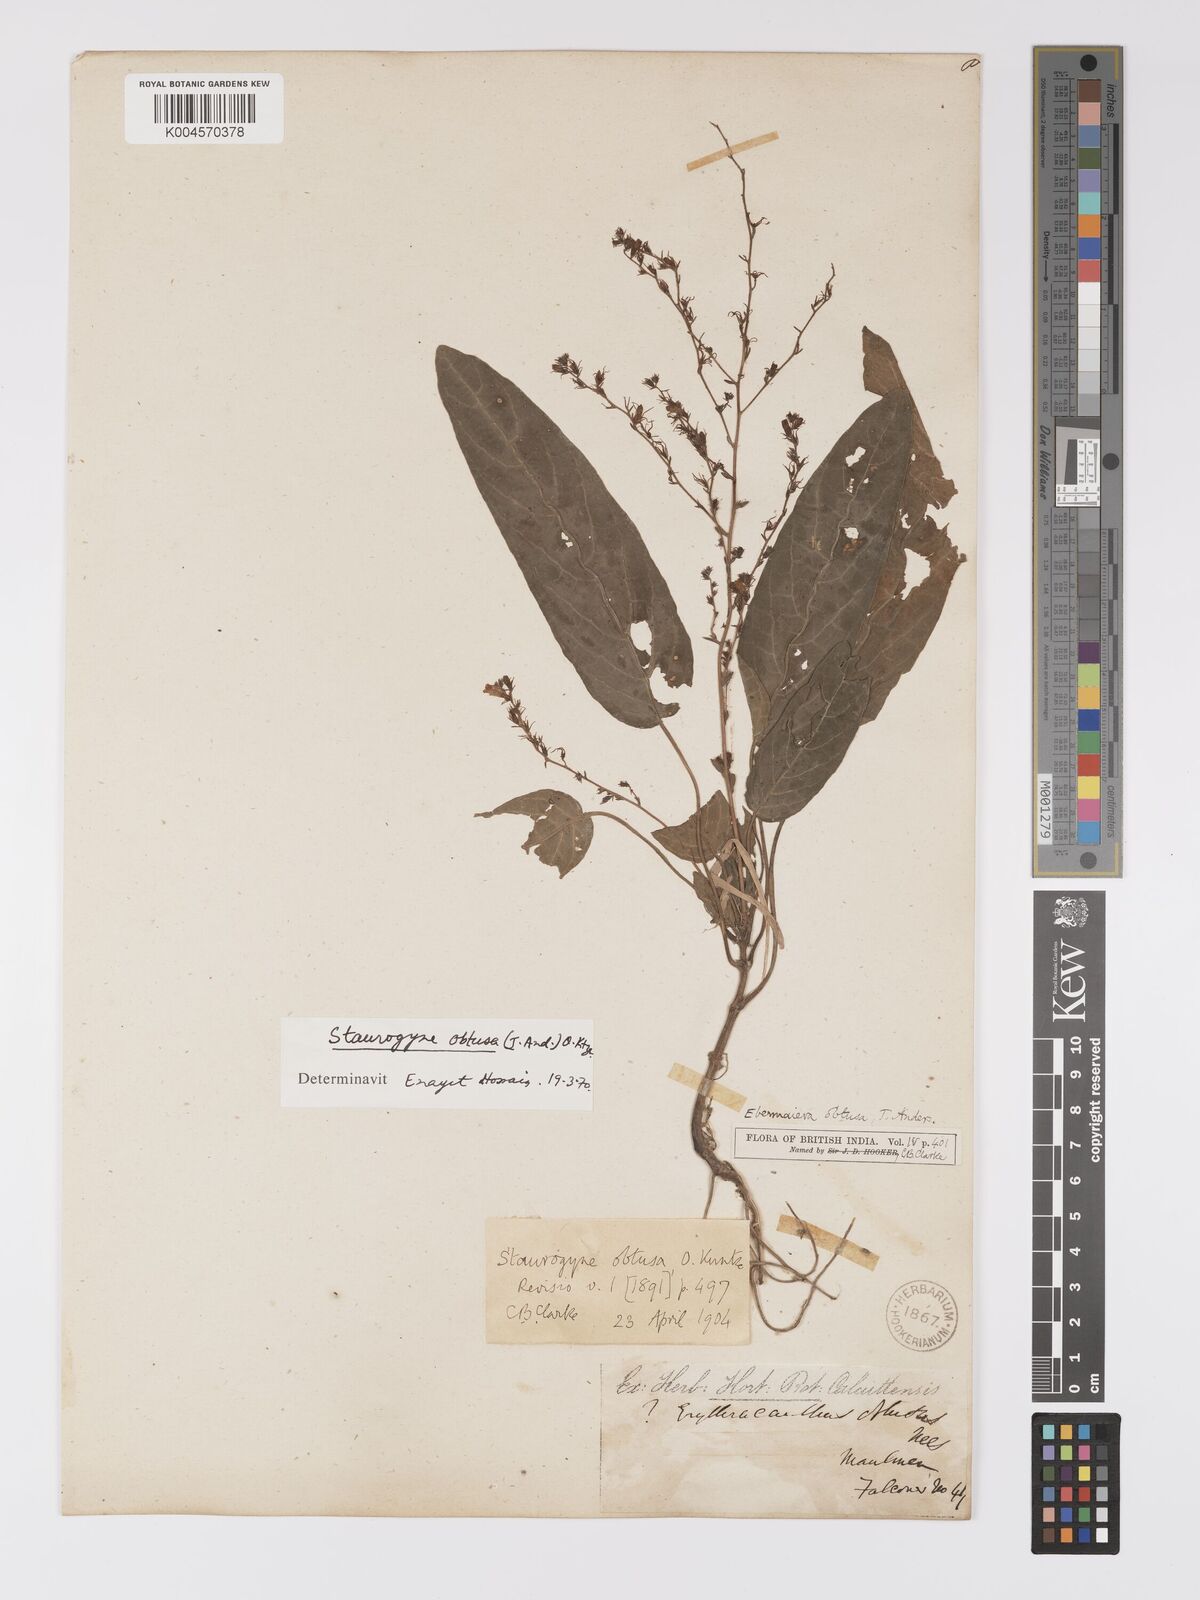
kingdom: Plantae
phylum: Tracheophyta
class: Magnoliopsida
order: Lamiales
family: Acanthaceae
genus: Staurogyne
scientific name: Staurogyne obtusa
